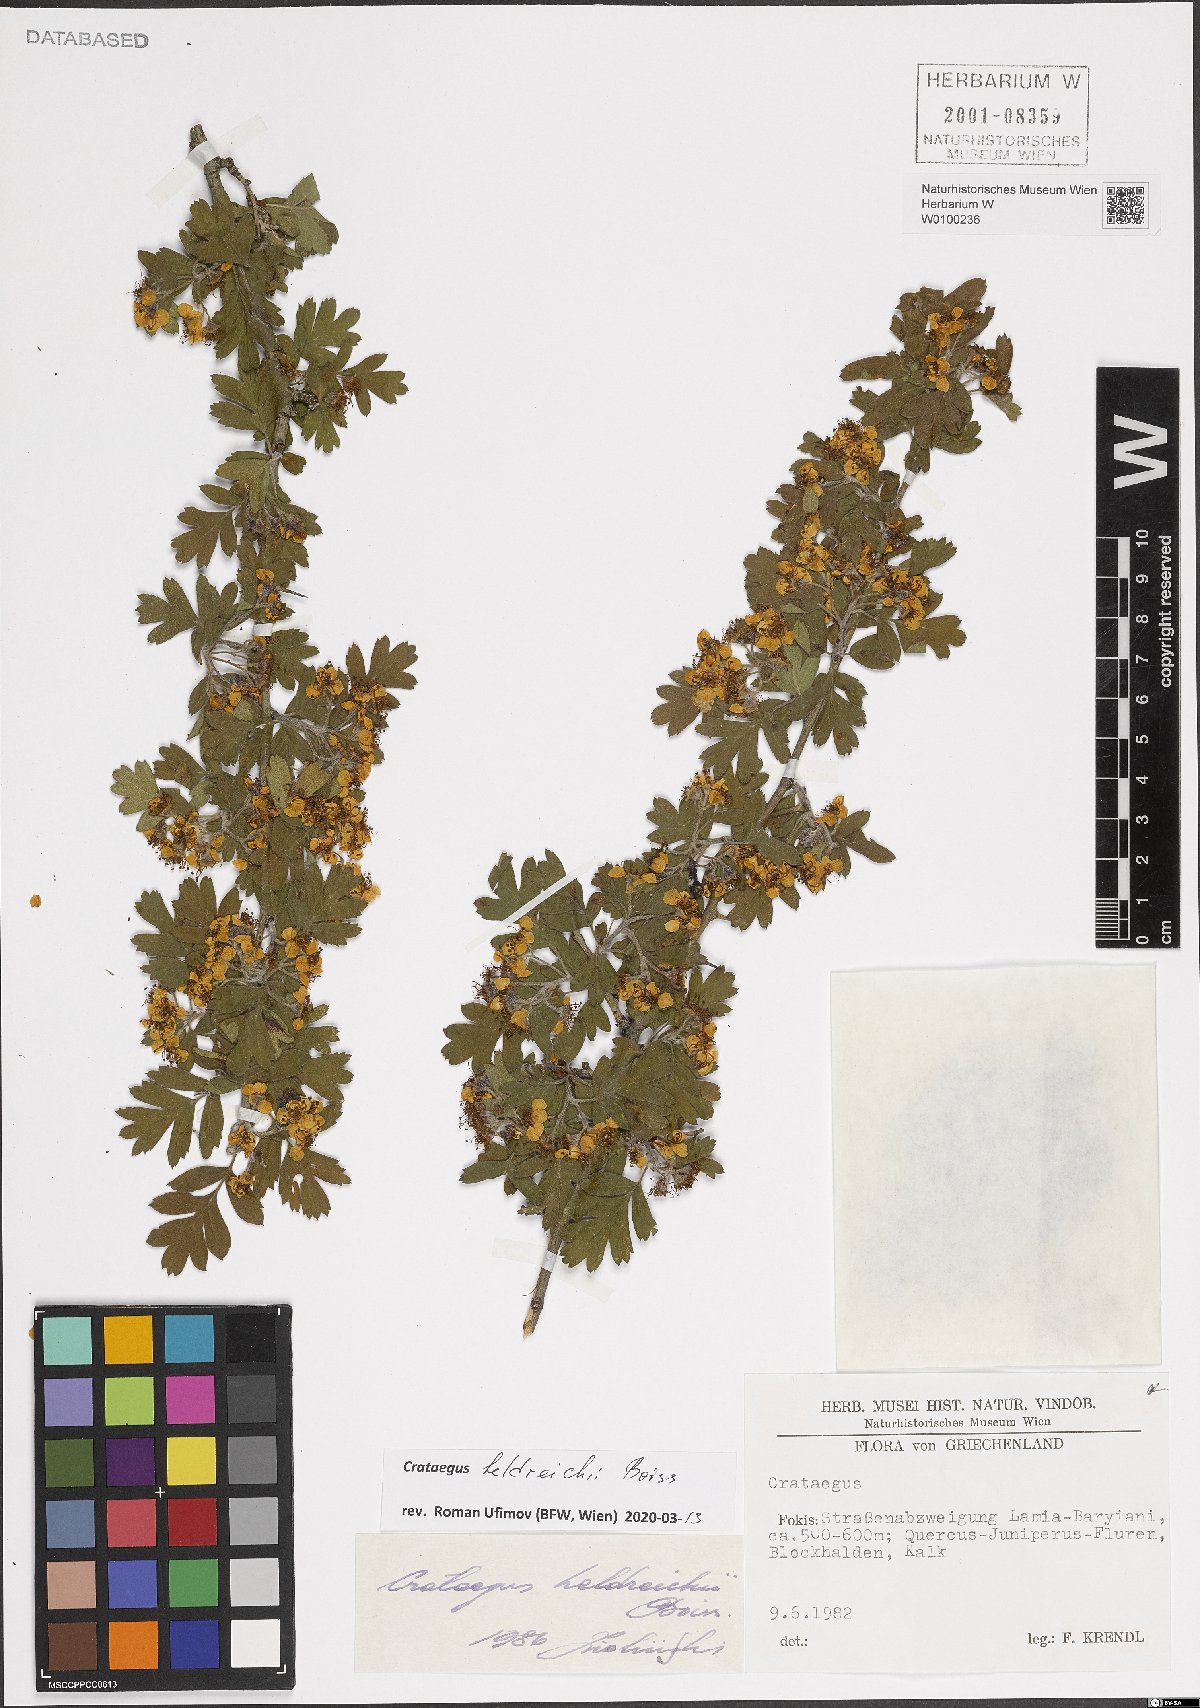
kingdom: Plantae
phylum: Tracheophyta
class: Magnoliopsida
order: Rosales
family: Rosaceae
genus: Crataegus
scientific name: Crataegus heldreichii
